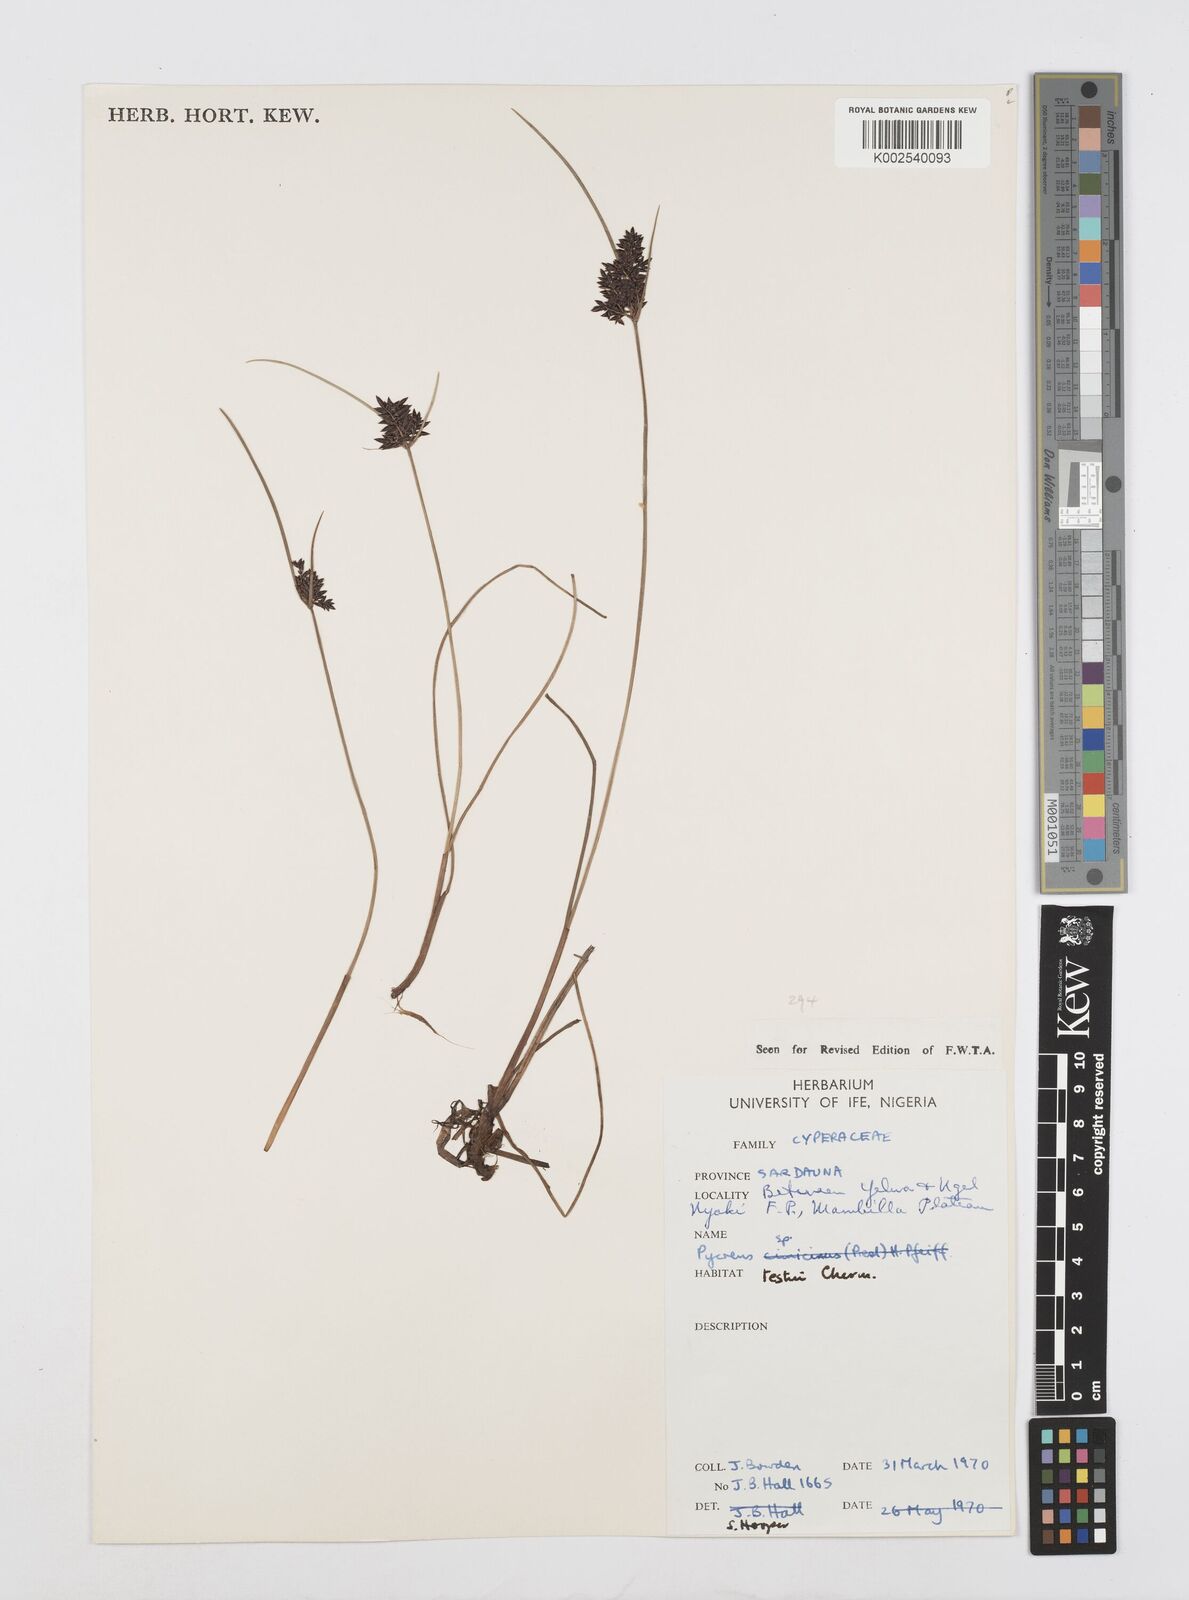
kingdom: Plantae
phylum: Tracheophyta
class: Liliopsida
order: Poales
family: Cyperaceae
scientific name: Cyperaceae
